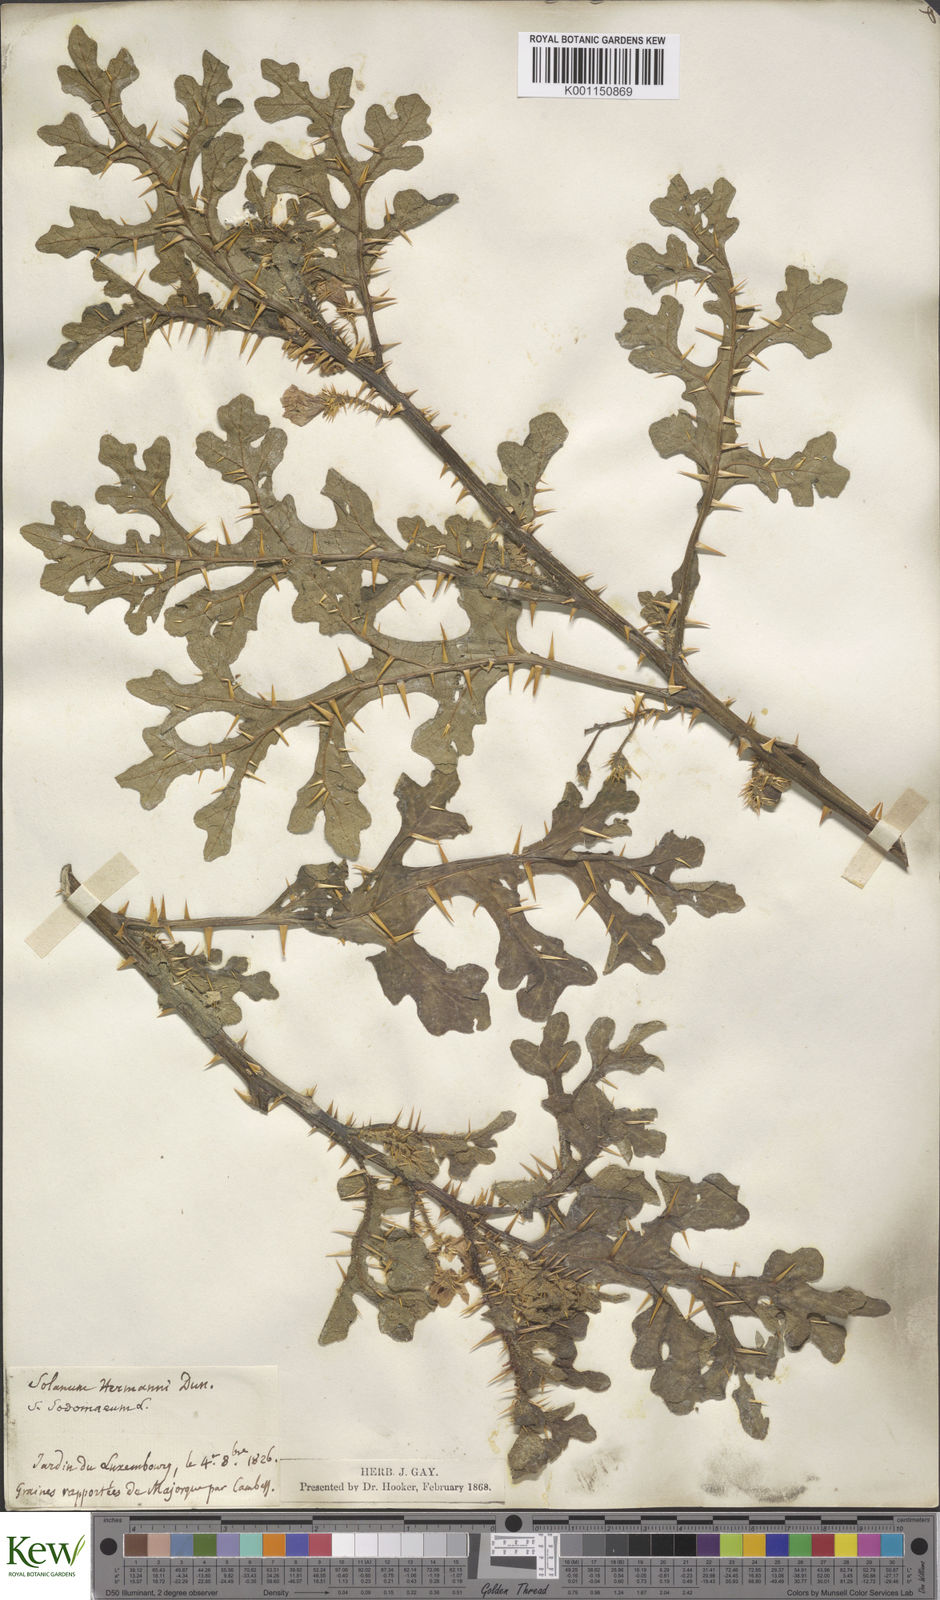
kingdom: Plantae
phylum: Tracheophyta
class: Magnoliopsida
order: Solanales
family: Solanaceae
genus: Solanum
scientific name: Solanum anguivi
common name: Forest bitterberry
